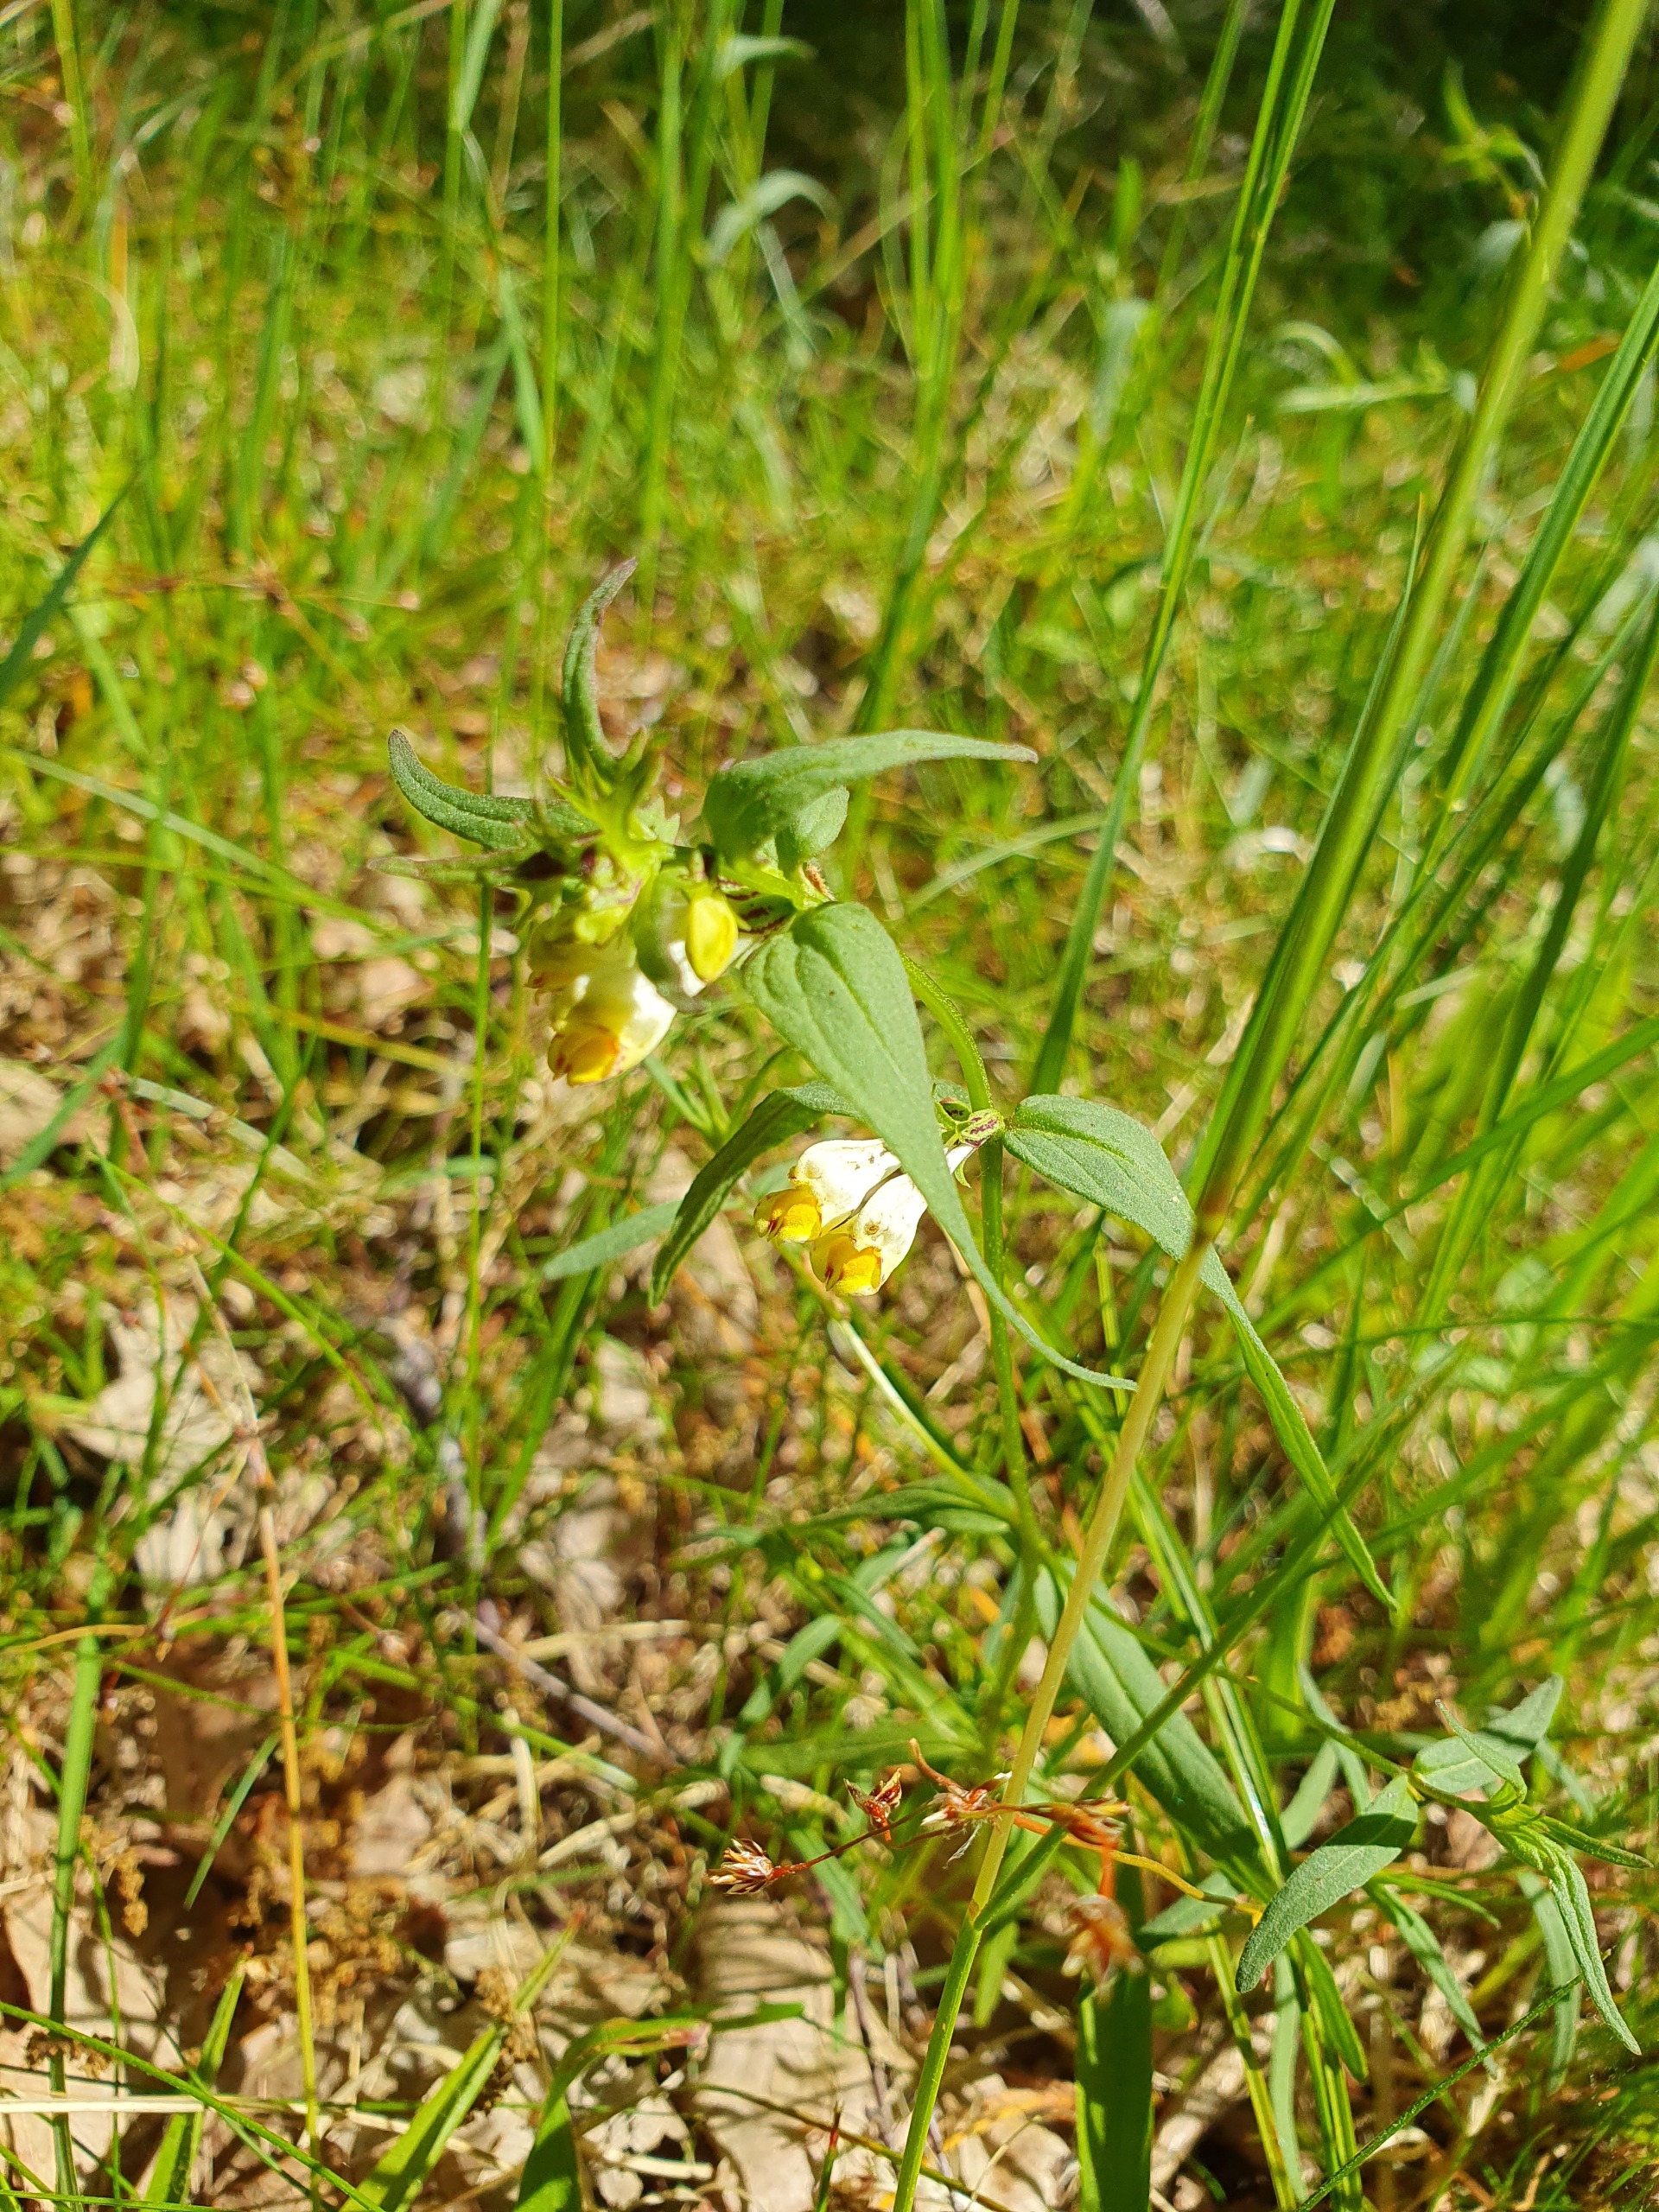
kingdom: Plantae
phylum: Tracheophyta
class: Magnoliopsida
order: Lamiales
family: Orobanchaceae
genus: Melampyrum
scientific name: Melampyrum pratense
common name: Almindelig kohvede
